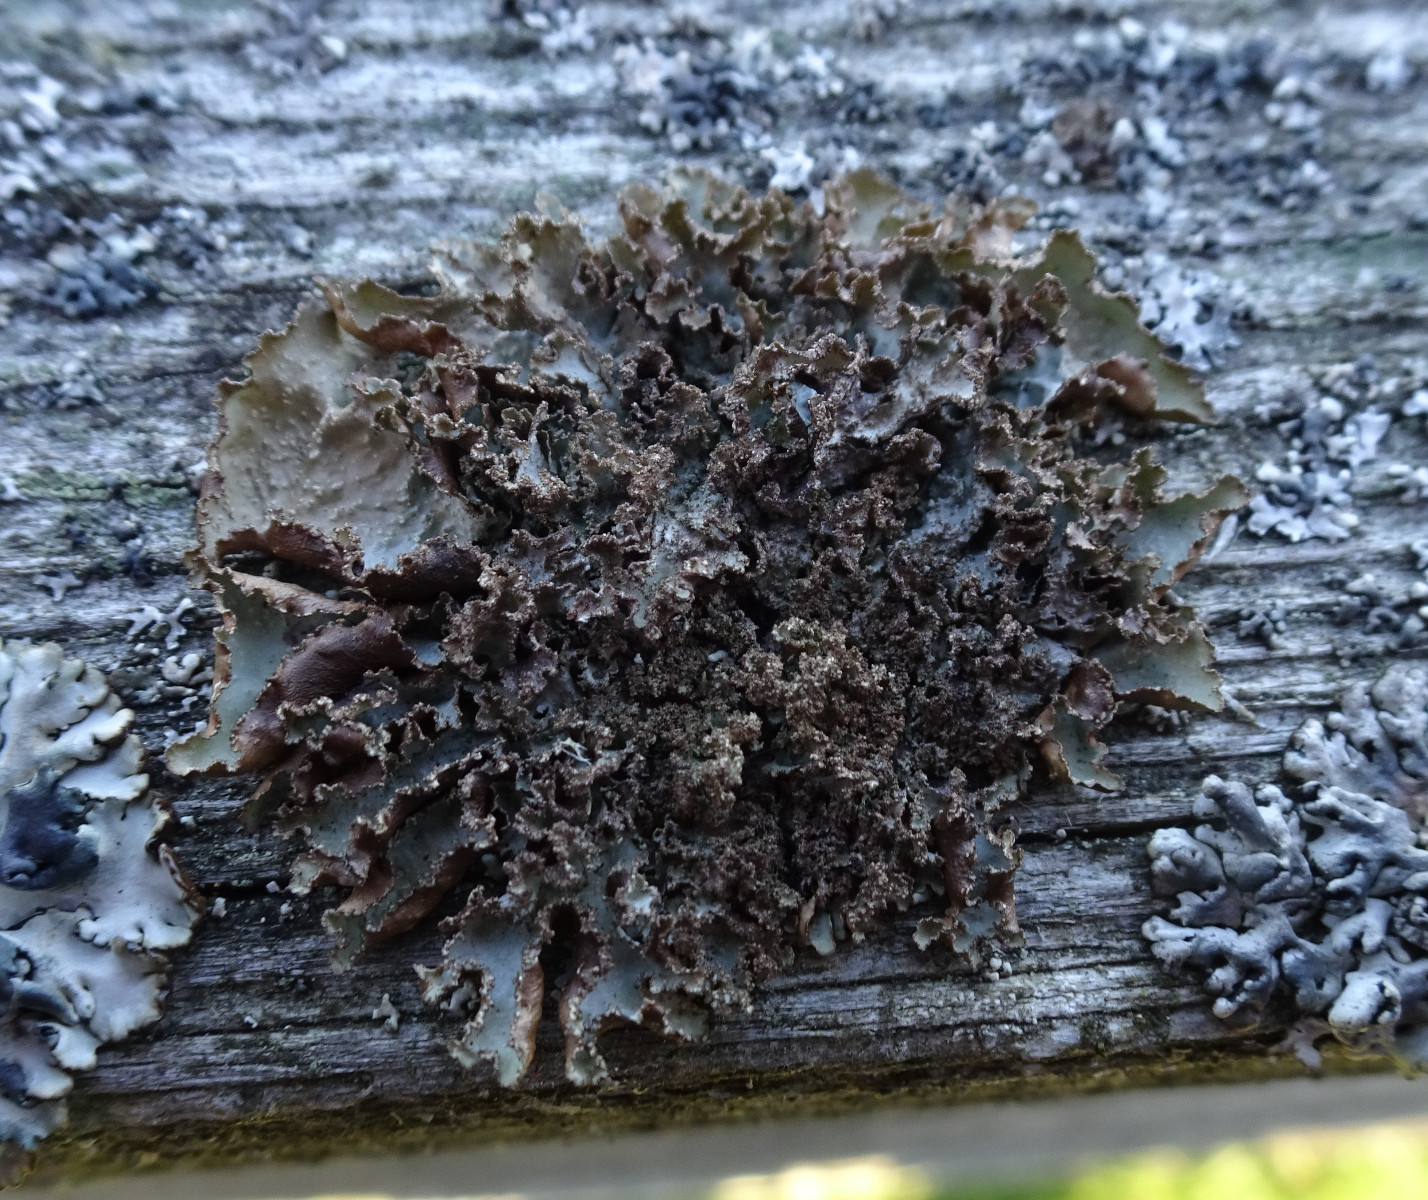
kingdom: Fungi
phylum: Ascomycota
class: Lecanoromycetes
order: Lecanorales
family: Parmeliaceae
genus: Platismatia
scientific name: Platismatia glauca
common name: blågrå papirlav
